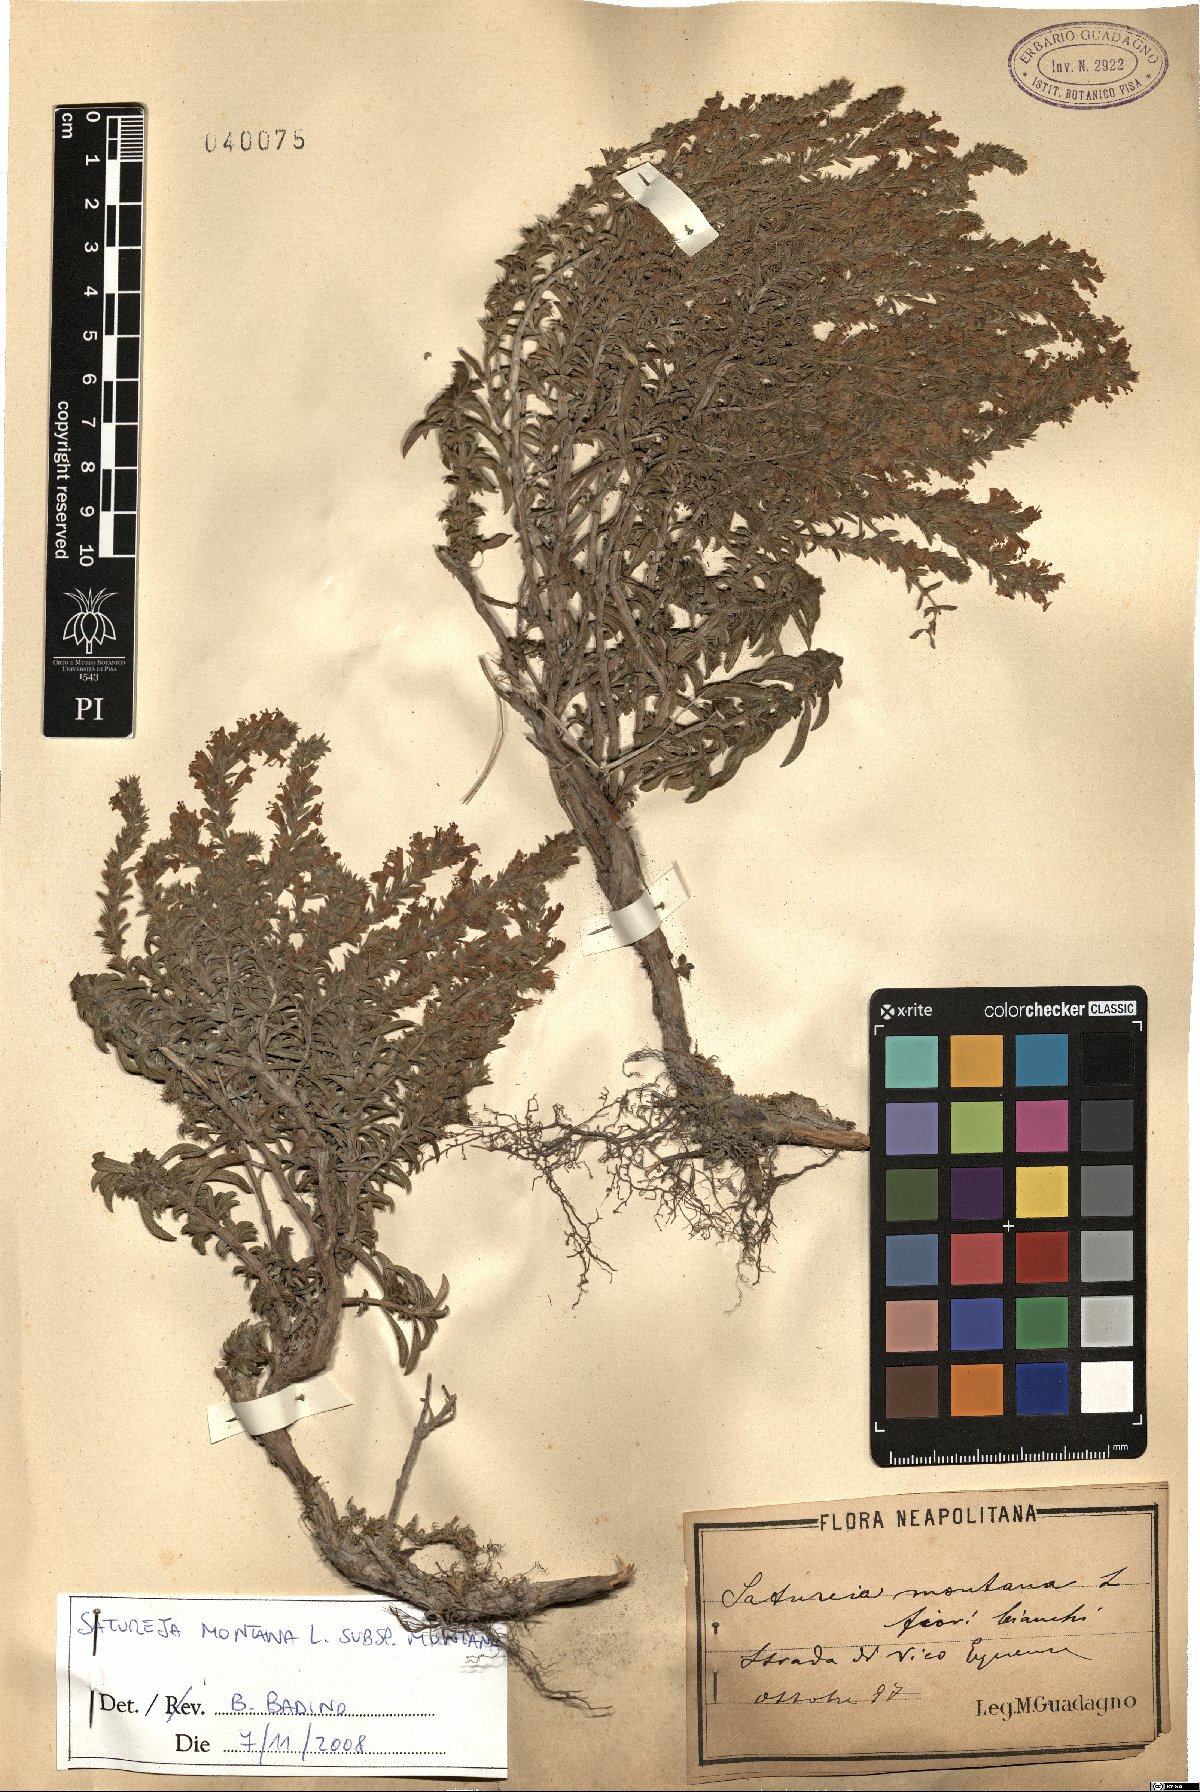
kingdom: Plantae
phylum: Tracheophyta
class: Magnoliopsida
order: Lamiales
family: Lamiaceae
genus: Satureja
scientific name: Satureja montana
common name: Winter savory
